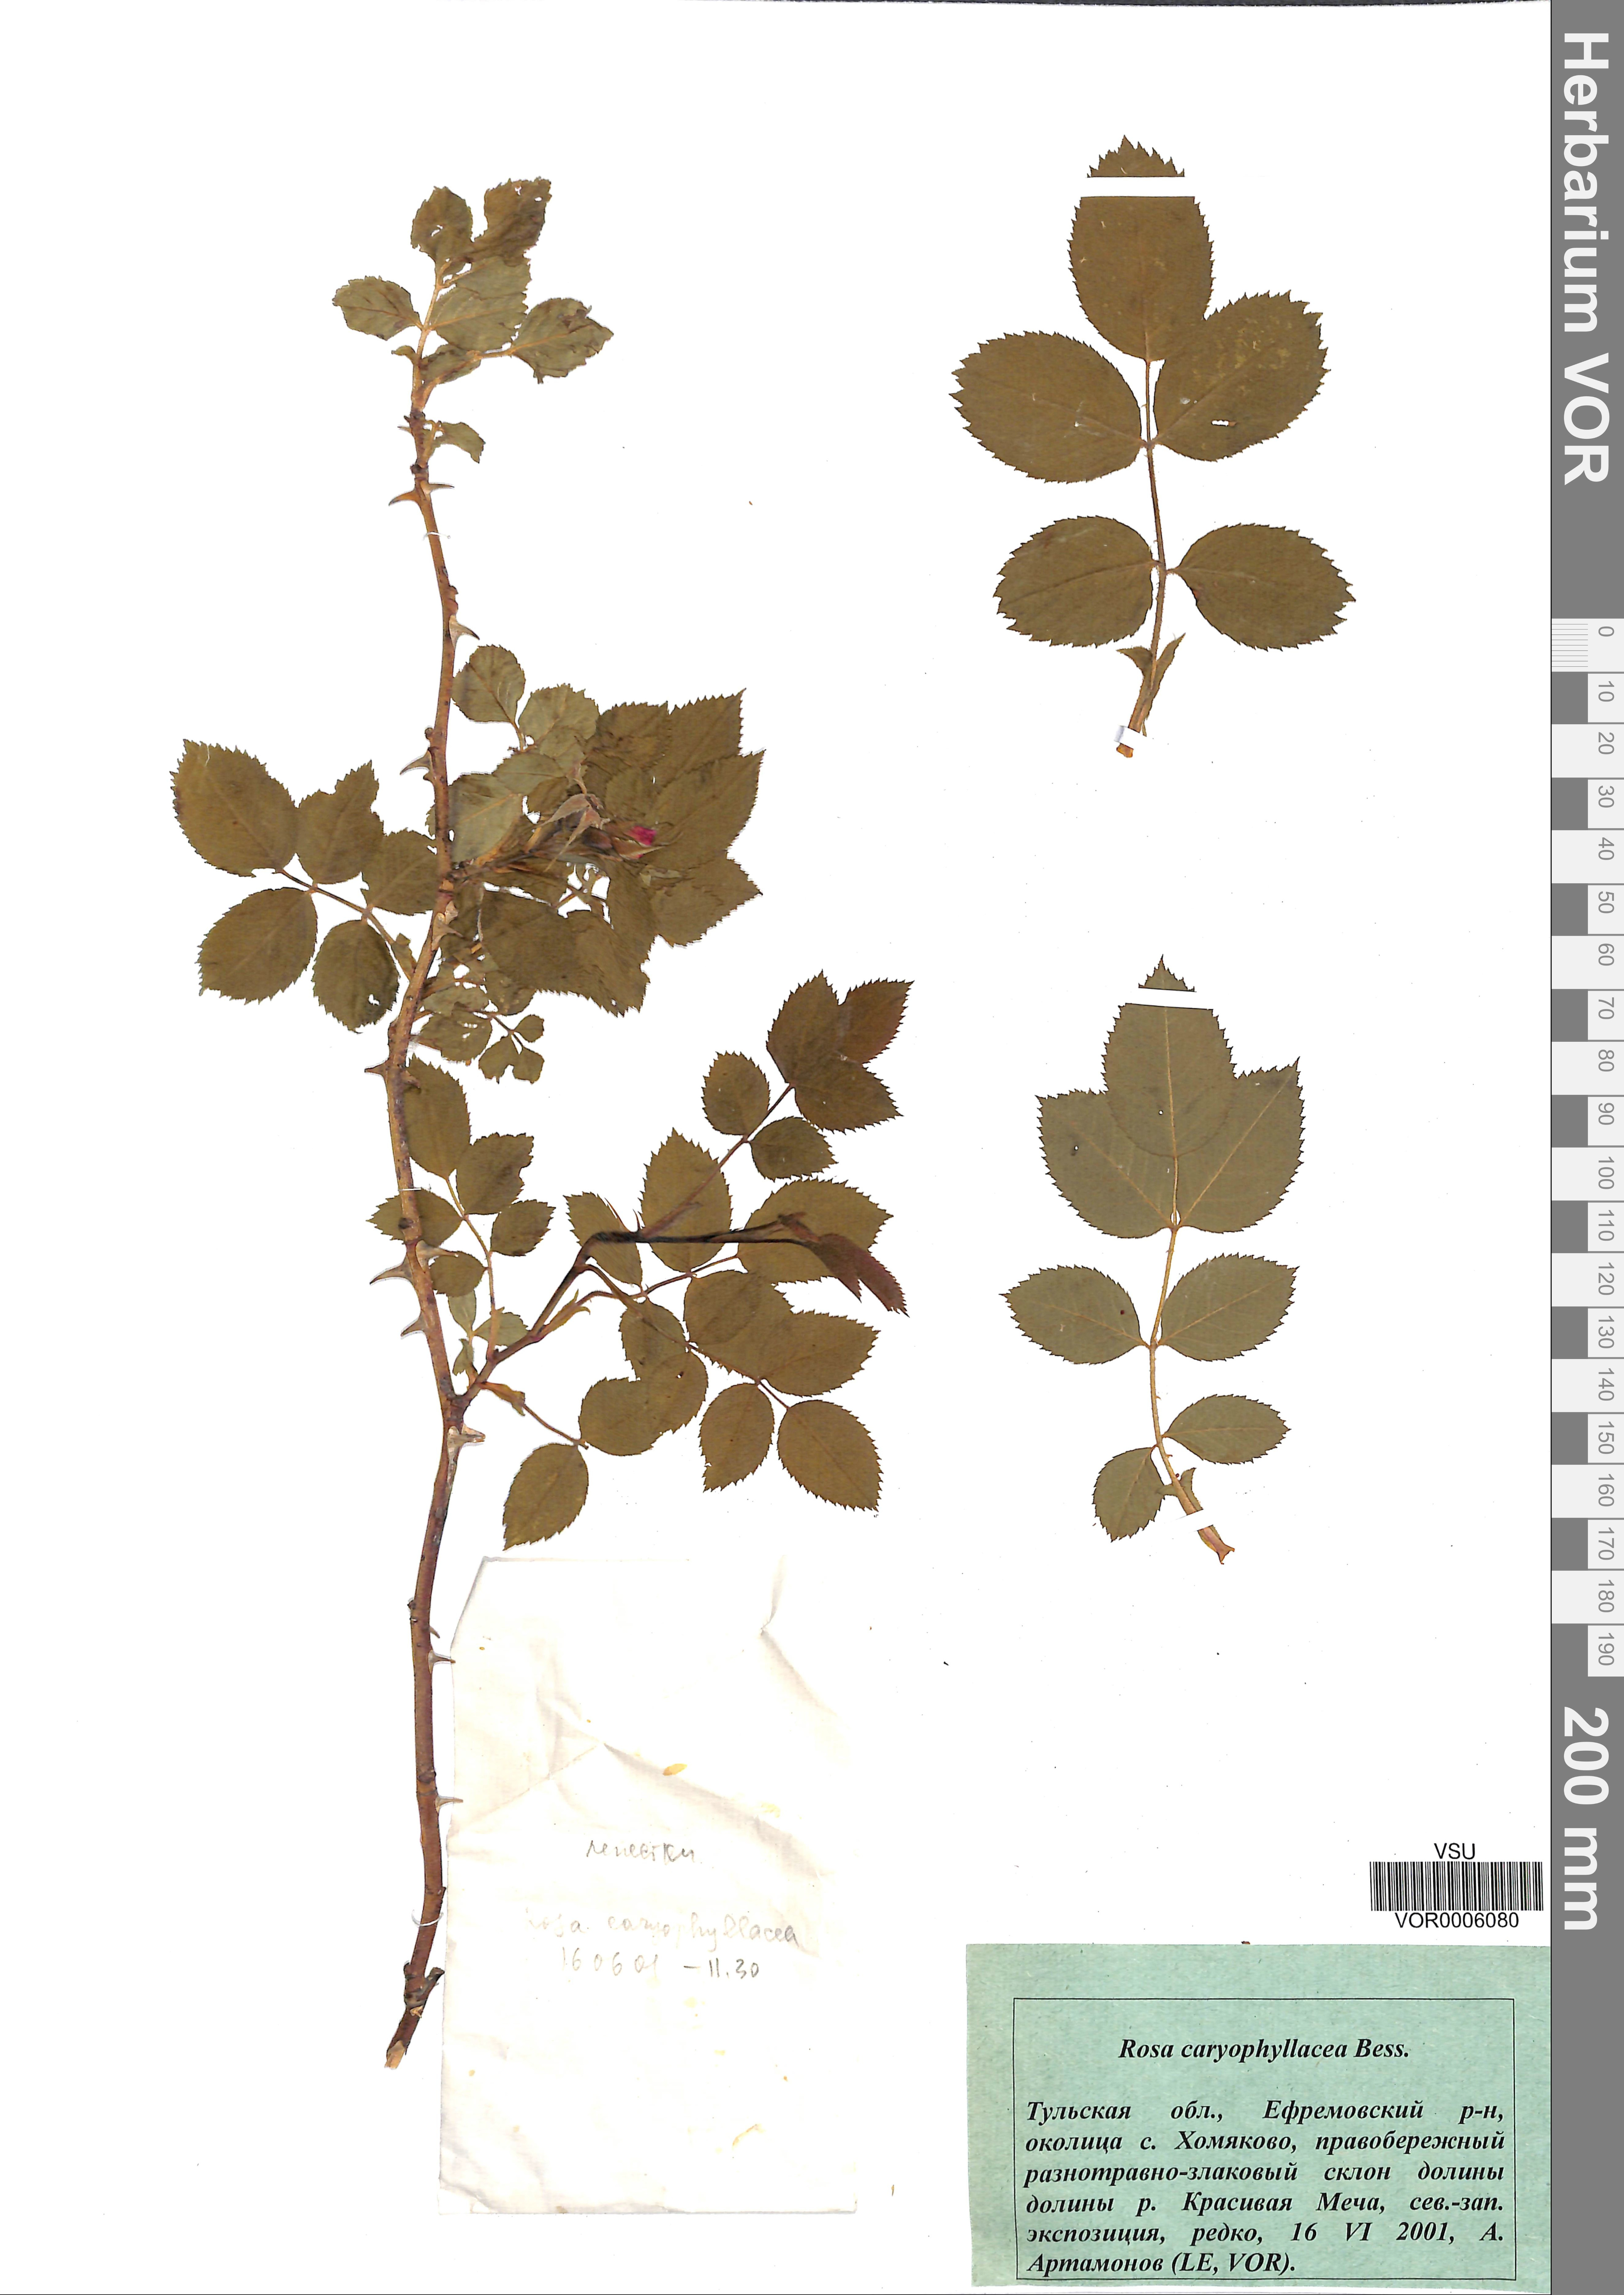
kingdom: Plantae
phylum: Tracheophyta
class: Magnoliopsida
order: Rosales
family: Rosaceae
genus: Rosa
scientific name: Rosa caryophyllacea
